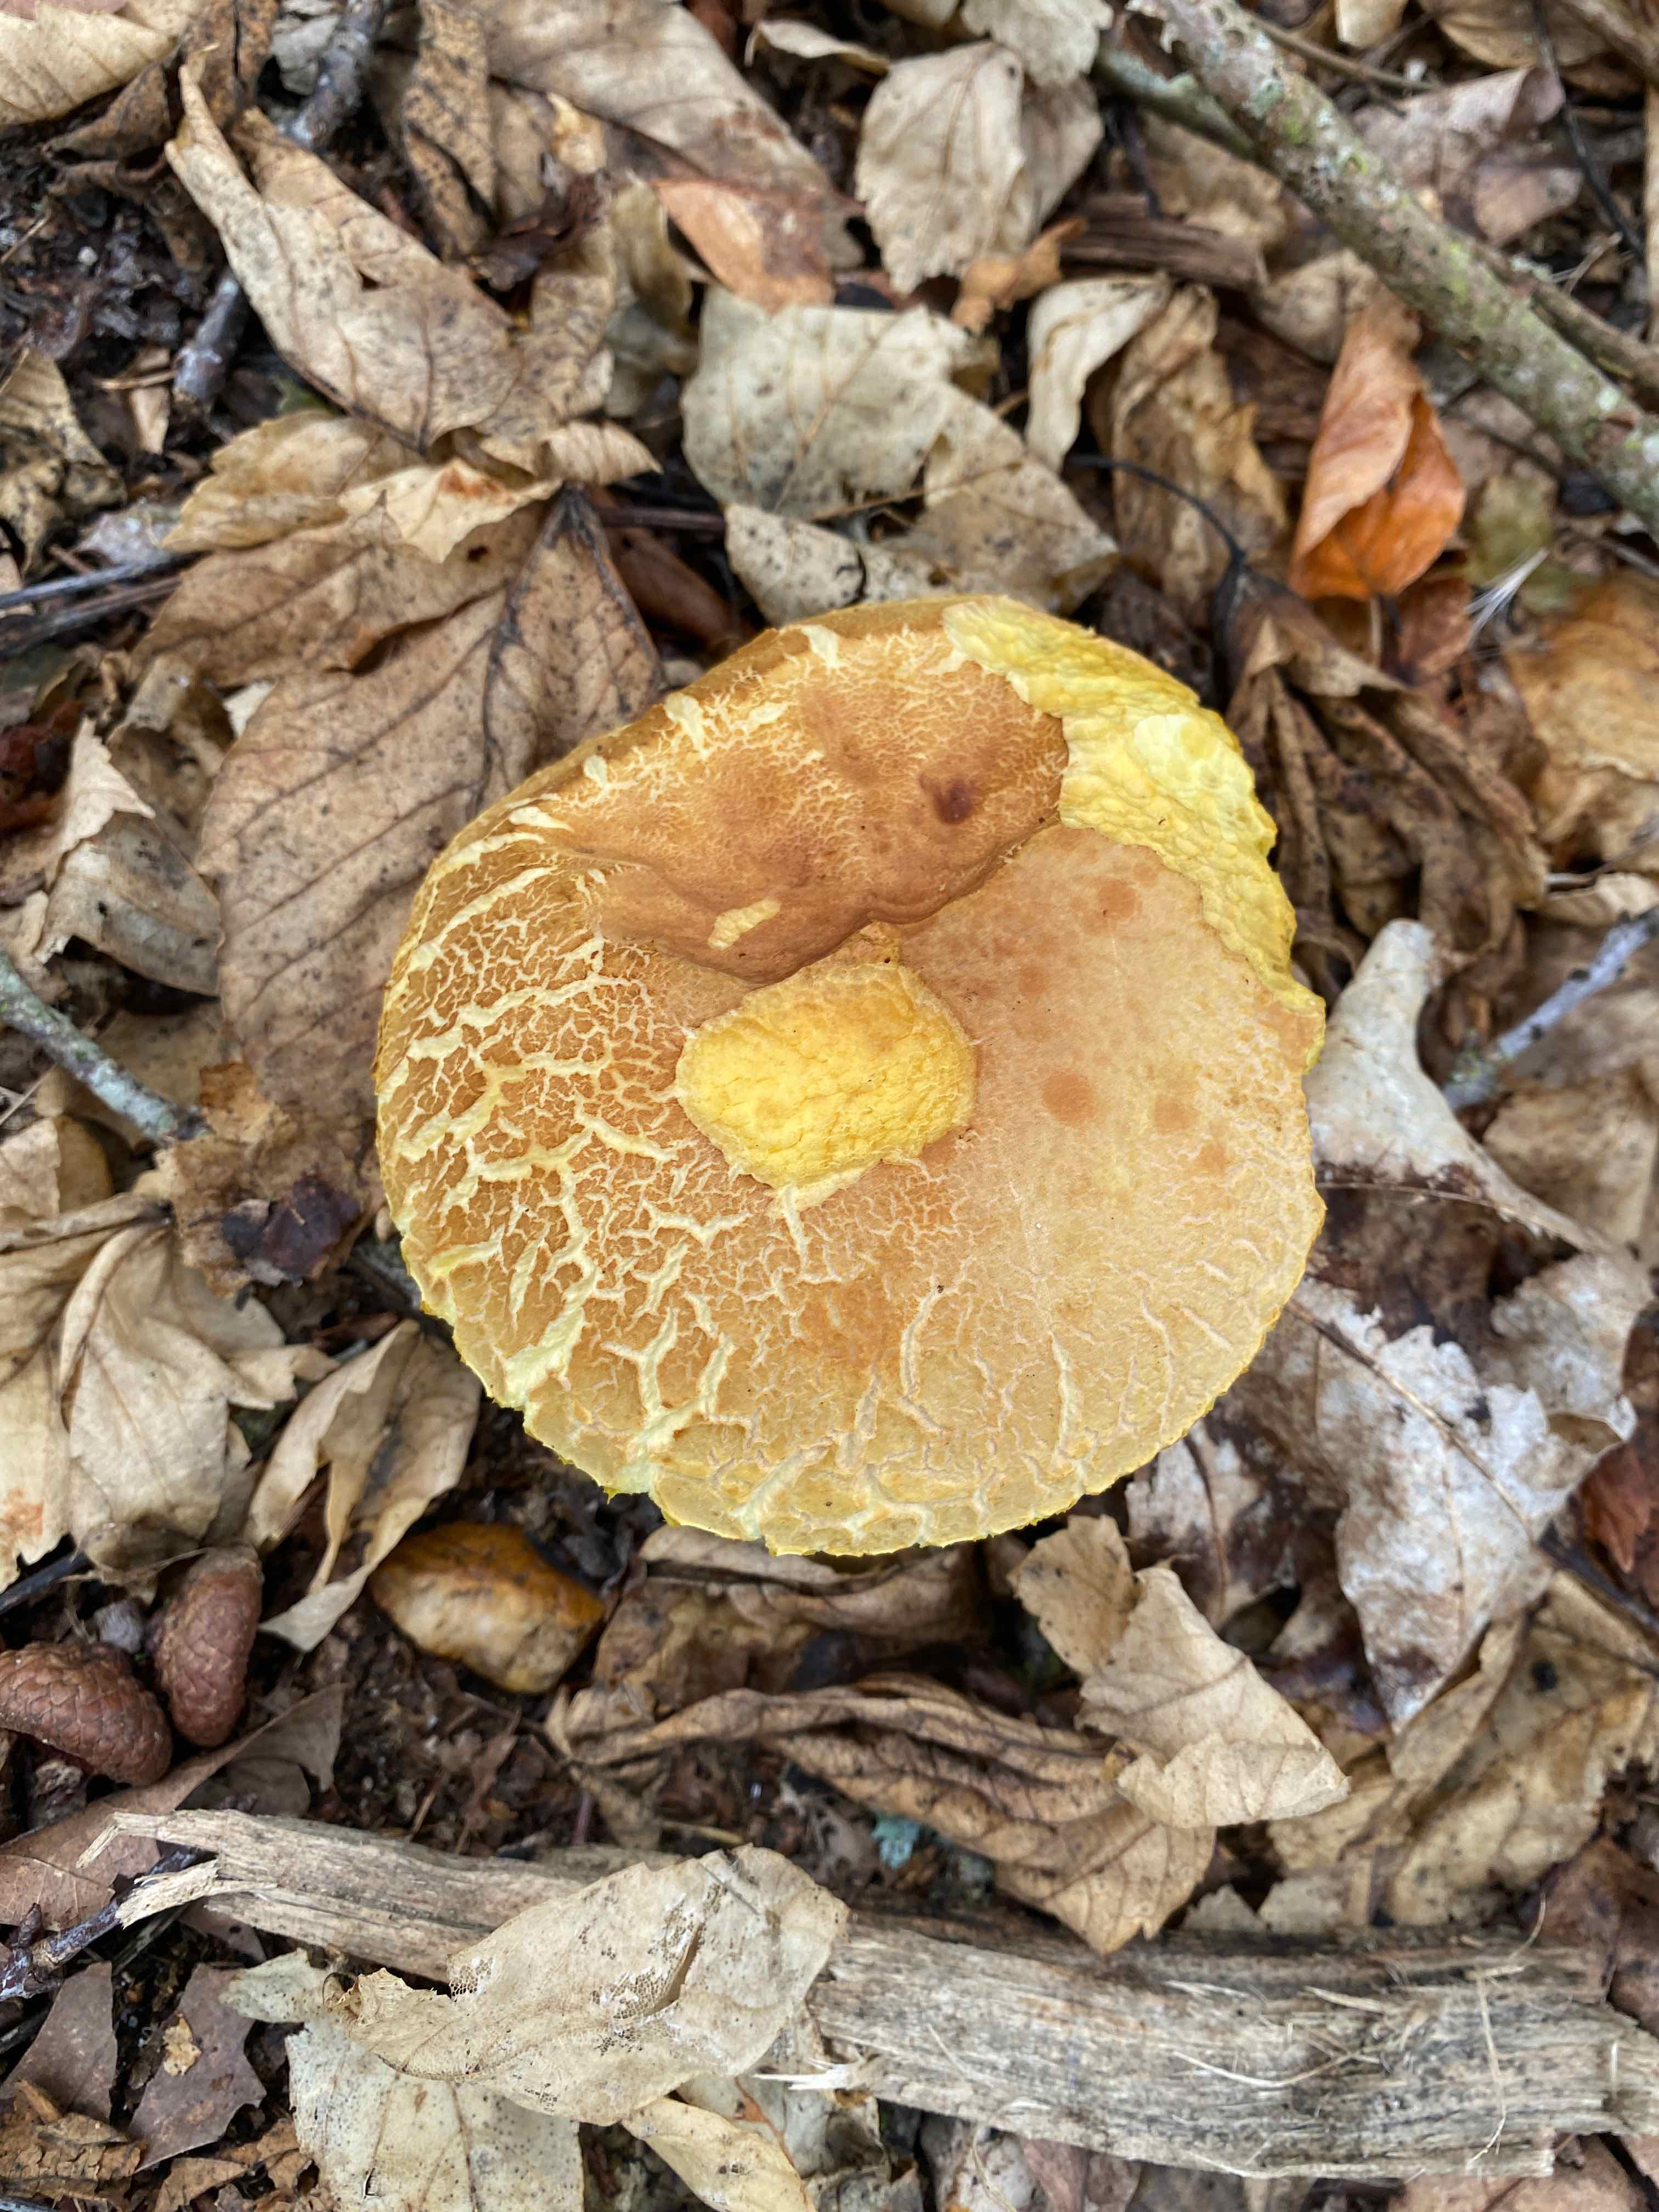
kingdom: Fungi
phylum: Basidiomycota
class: Agaricomycetes
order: Boletales
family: Boletaceae
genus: Xerocomus
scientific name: Xerocomus
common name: filtrørhat
